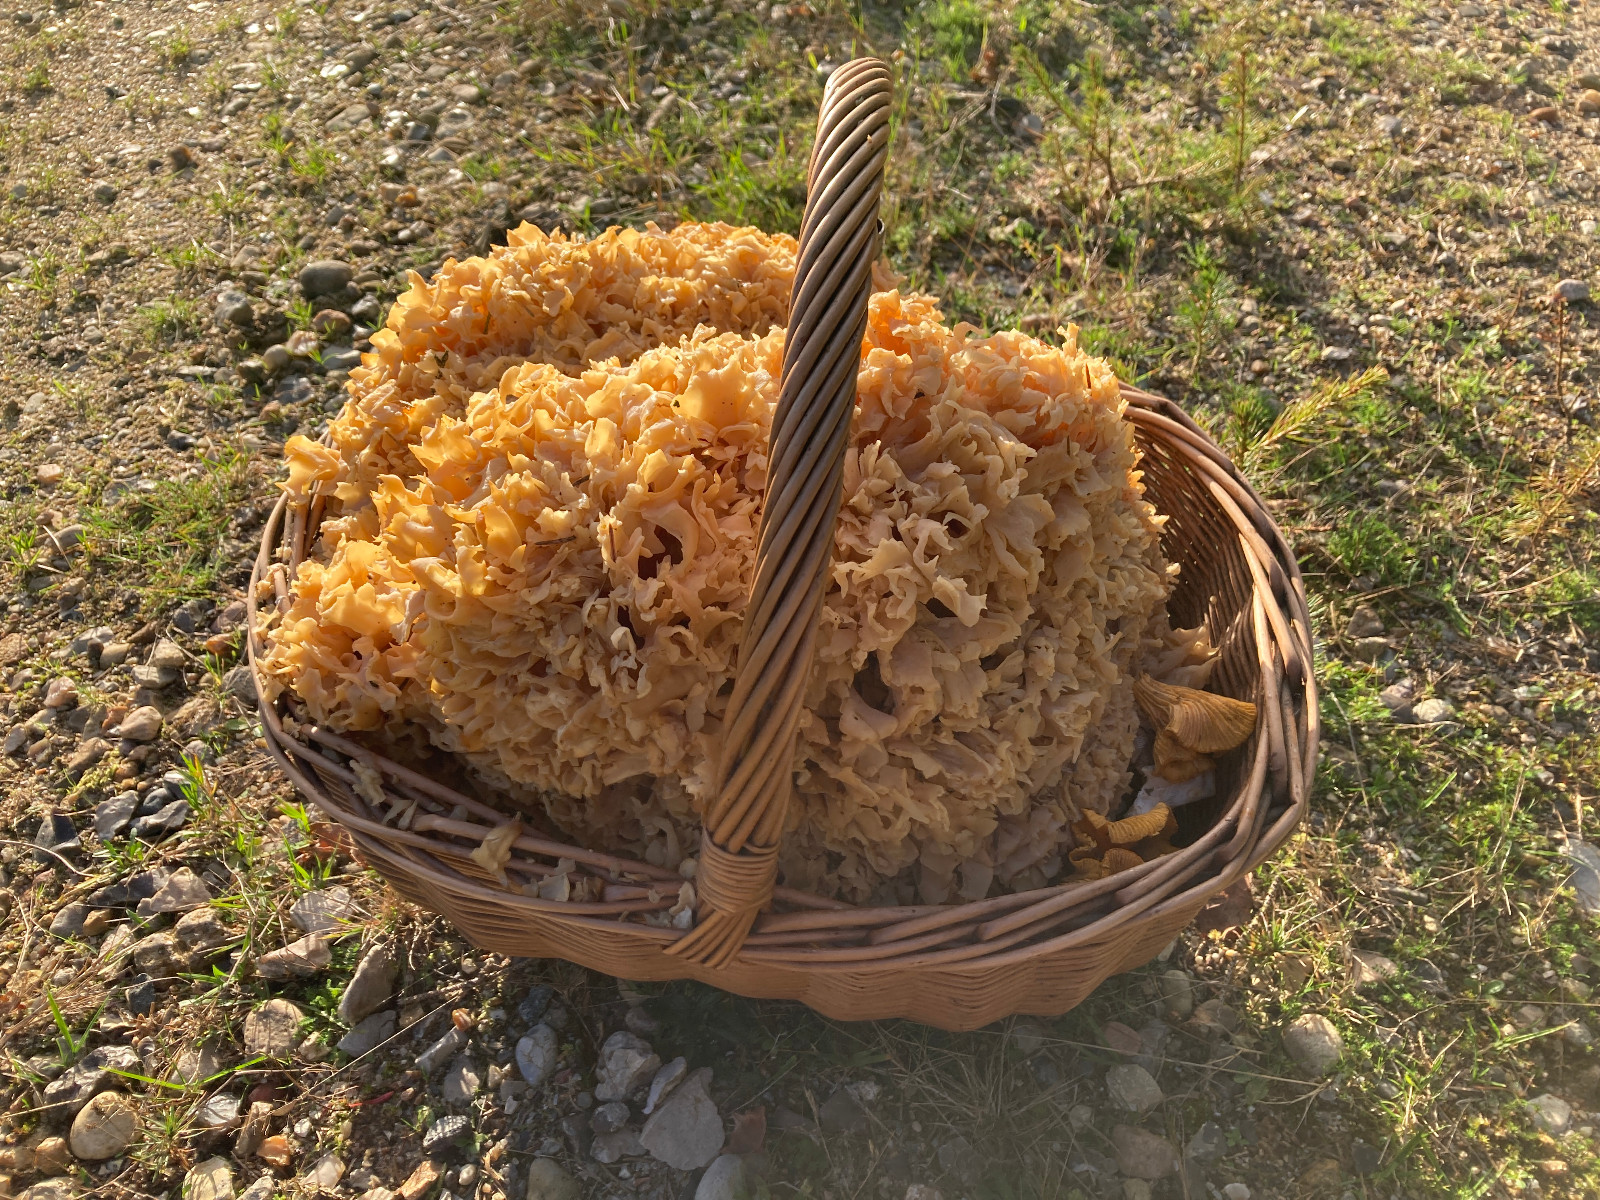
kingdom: Fungi
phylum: Basidiomycota
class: Agaricomycetes
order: Polyporales
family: Sparassidaceae
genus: Sparassis
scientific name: Sparassis crispa
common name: kruset blomkålssvamp
